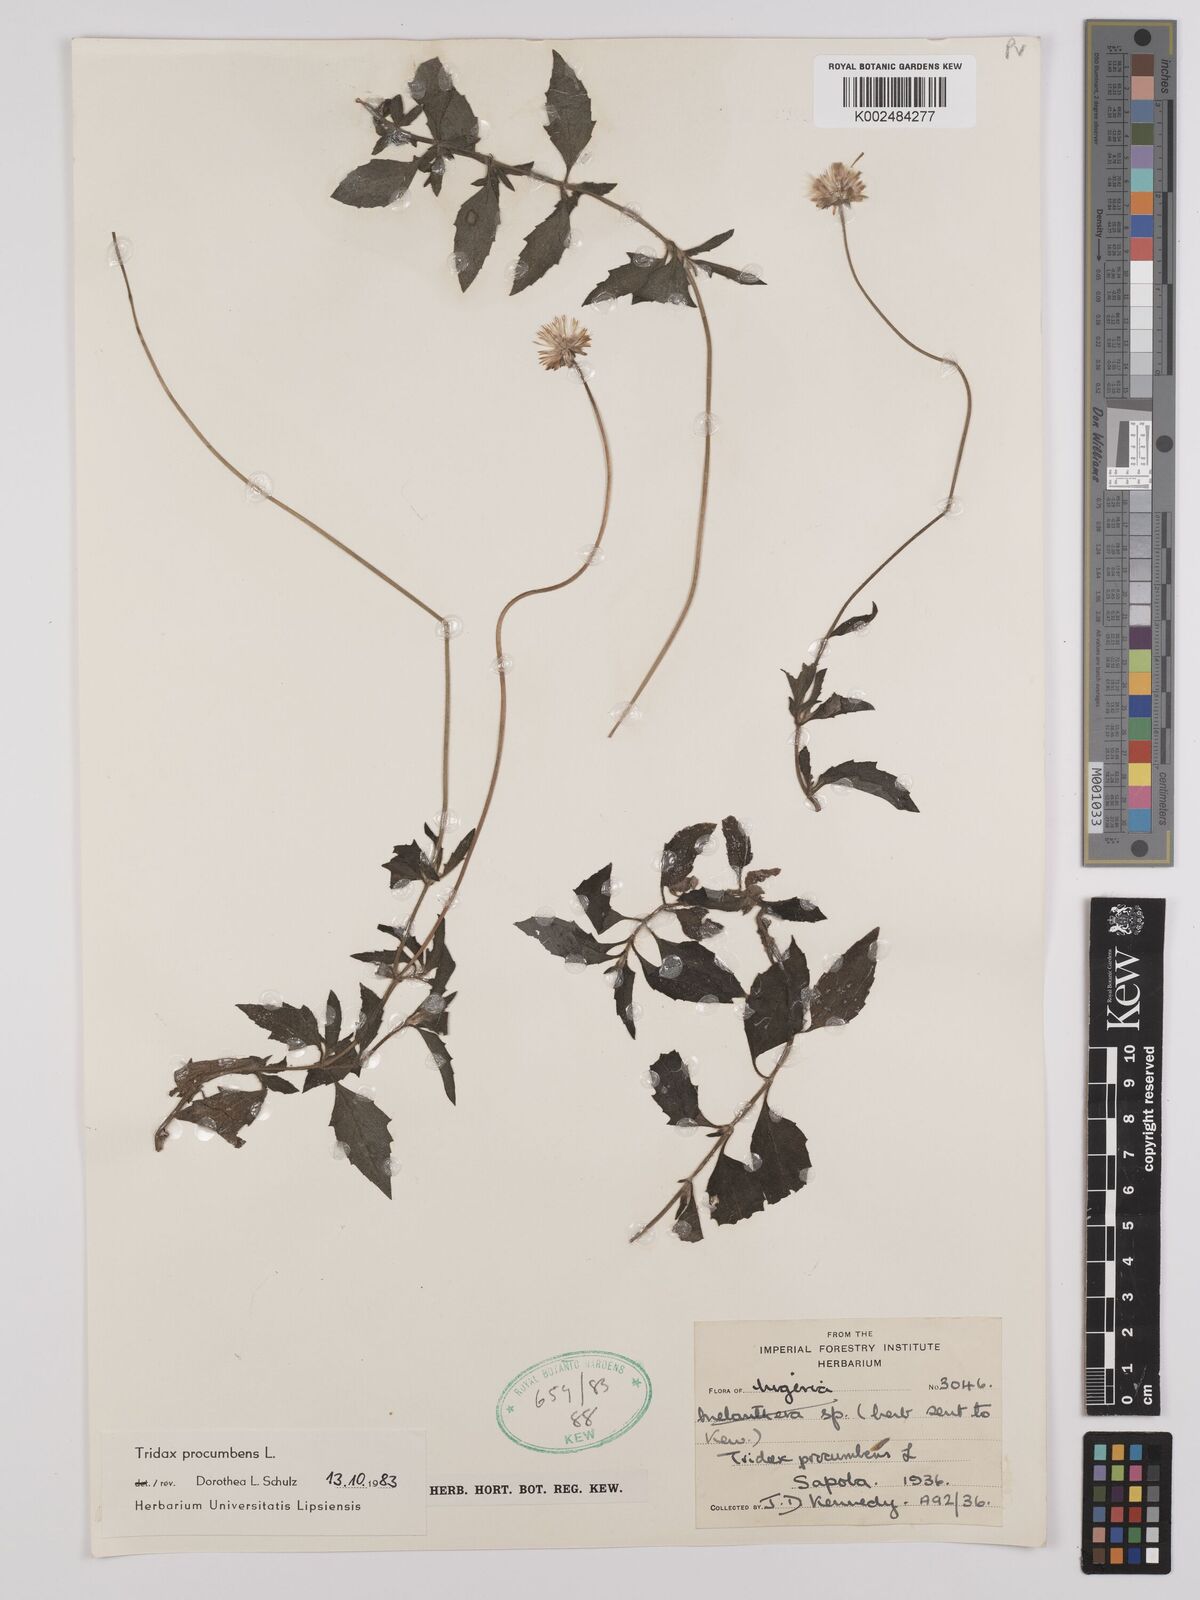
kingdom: Plantae
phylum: Tracheophyta
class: Magnoliopsida
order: Asterales
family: Asteraceae
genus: Tridax
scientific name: Tridax procumbens
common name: Coatbuttons
